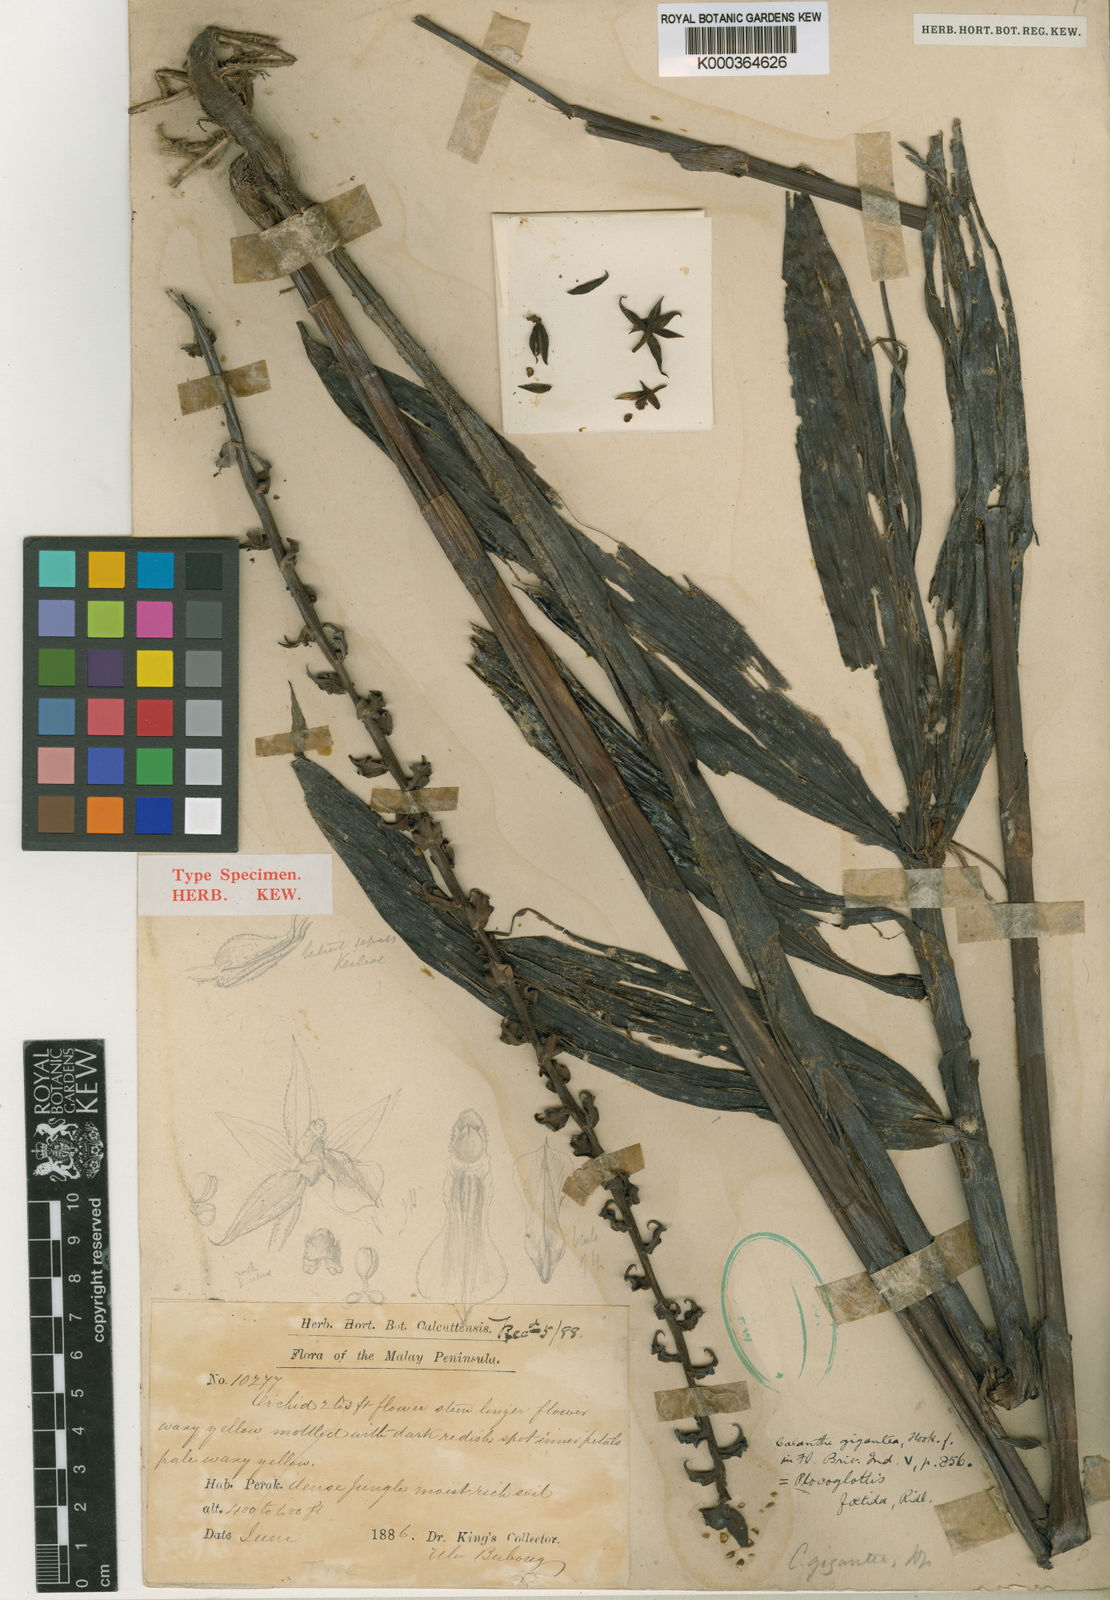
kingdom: Plantae
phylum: Tracheophyta
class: Liliopsida
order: Asparagales
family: Orchidaceae
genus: Plocoglottis
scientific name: Plocoglottis gigantea
